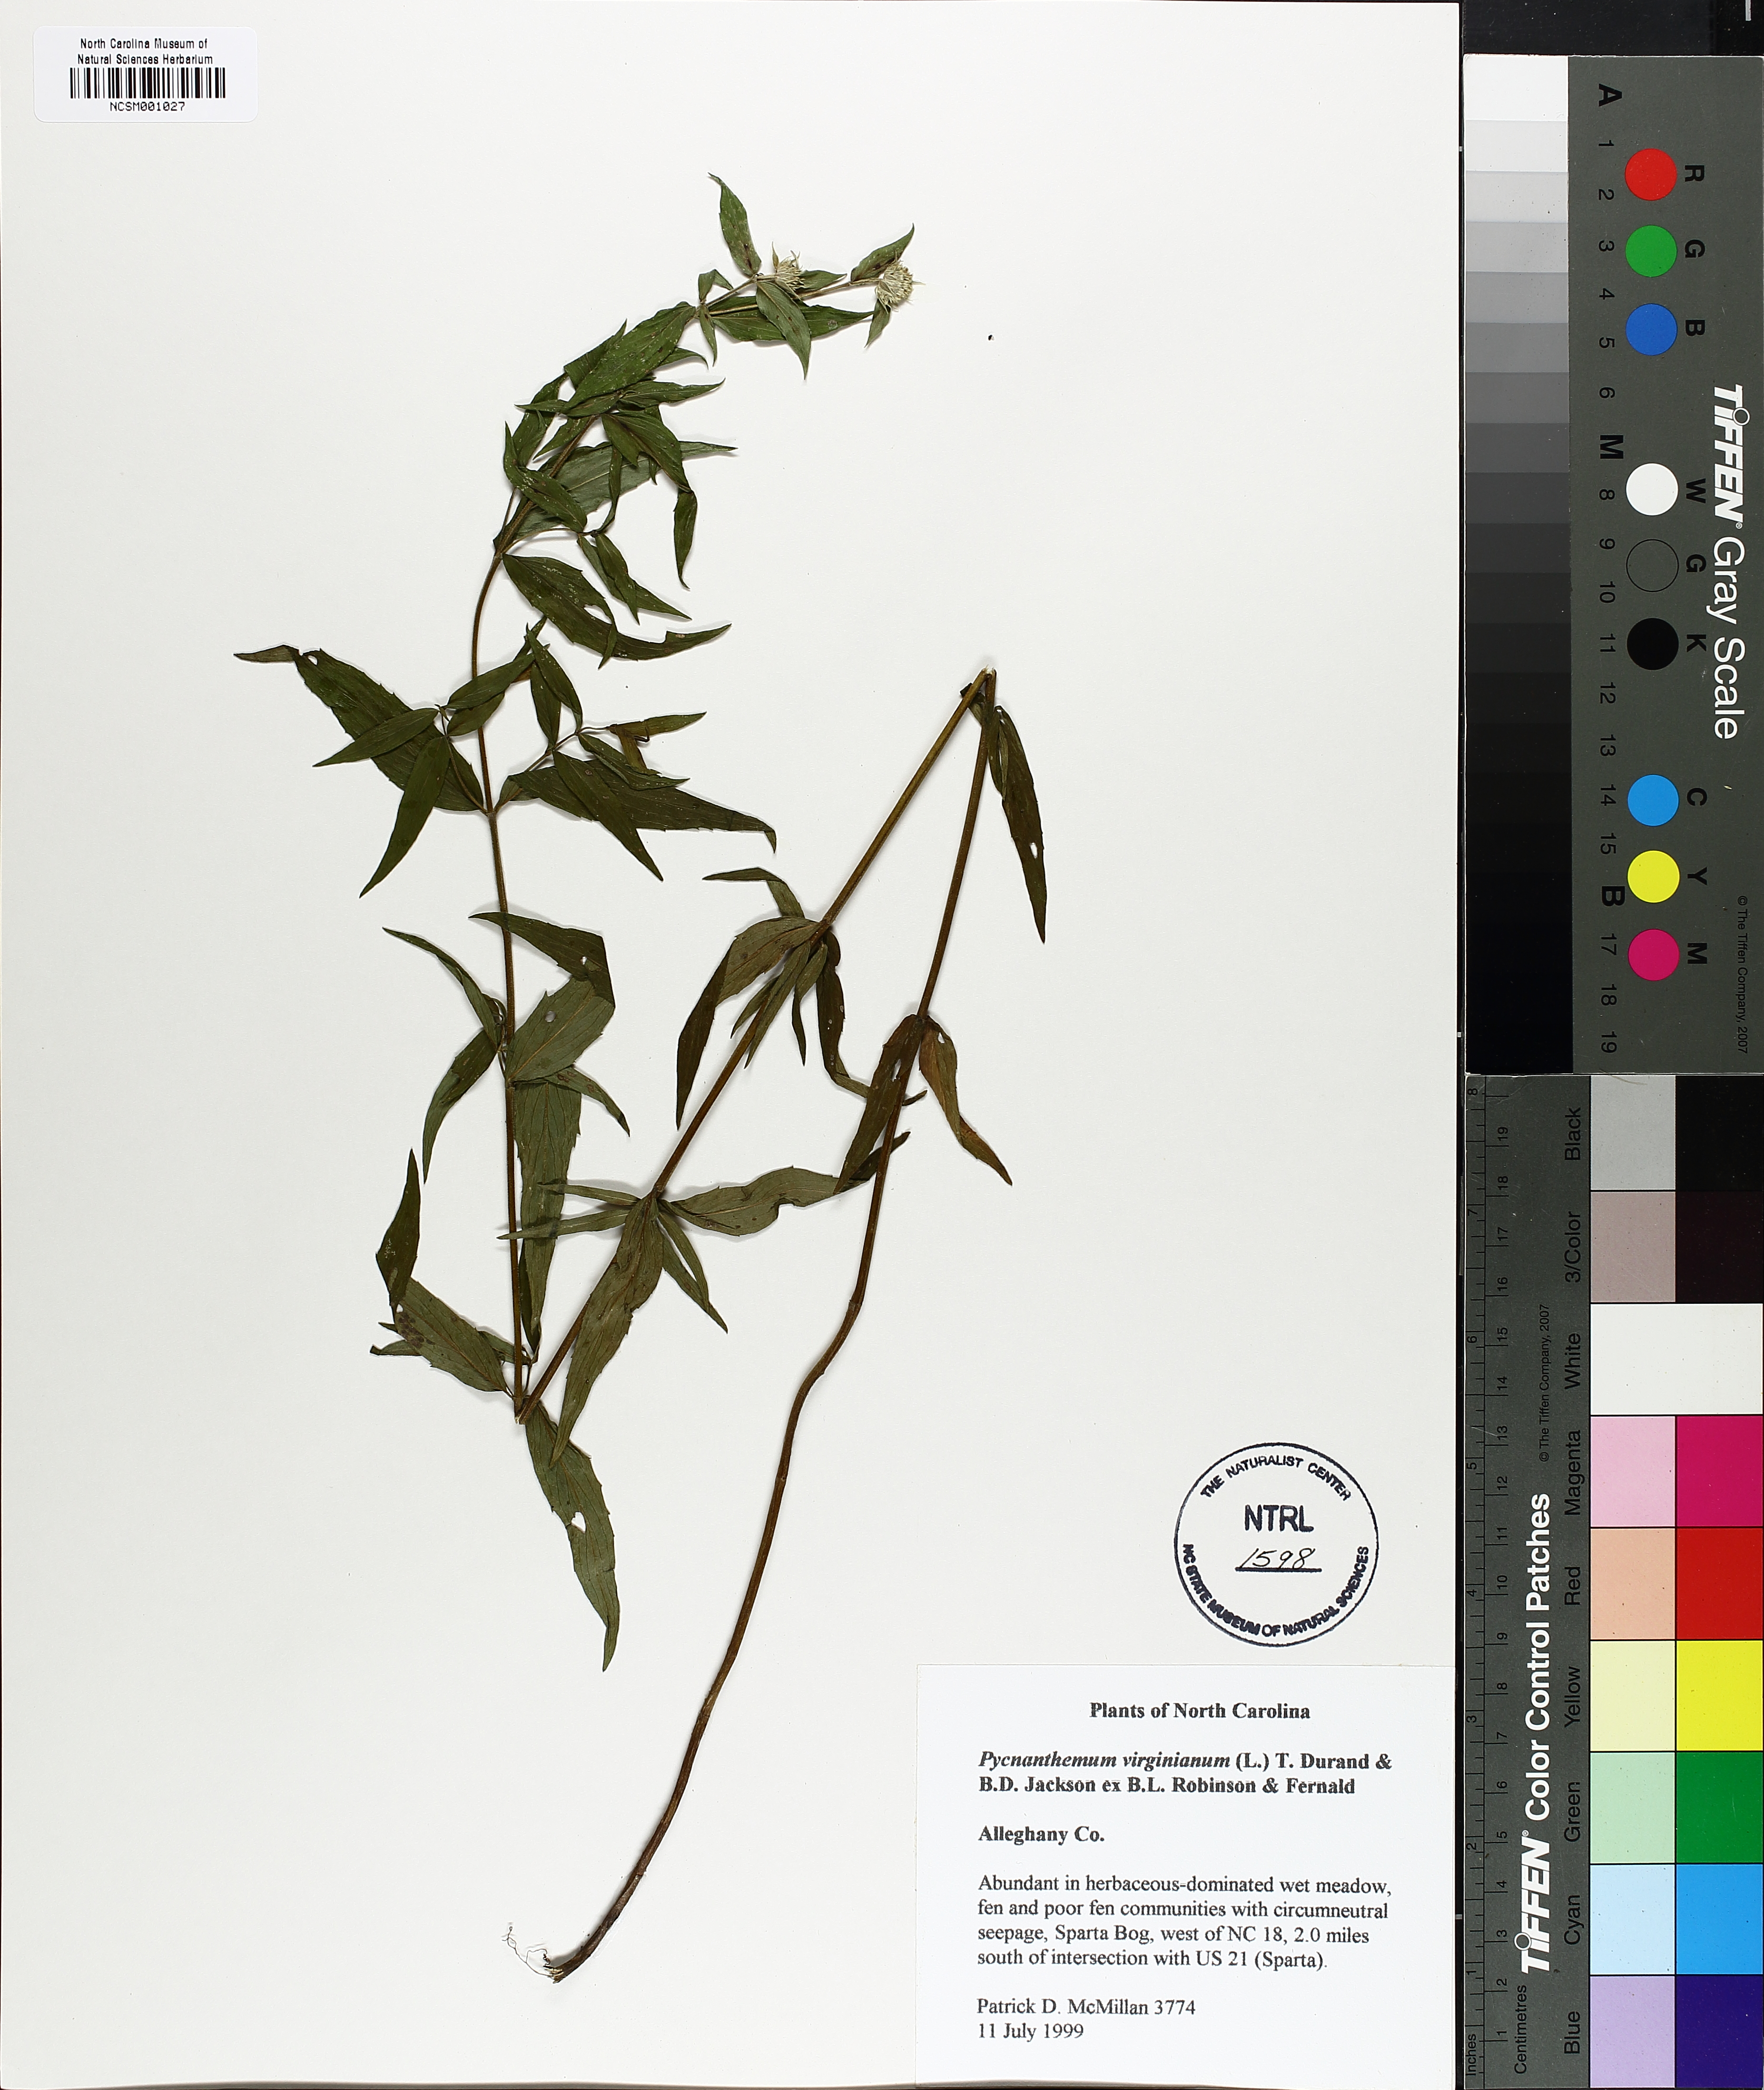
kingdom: Plantae
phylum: Tracheophyta
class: Magnoliopsida
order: Lamiales
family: Lamiaceae
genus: Pycnanthemum
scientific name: Pycnanthemum virginianum
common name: Virginia mountain-mint
